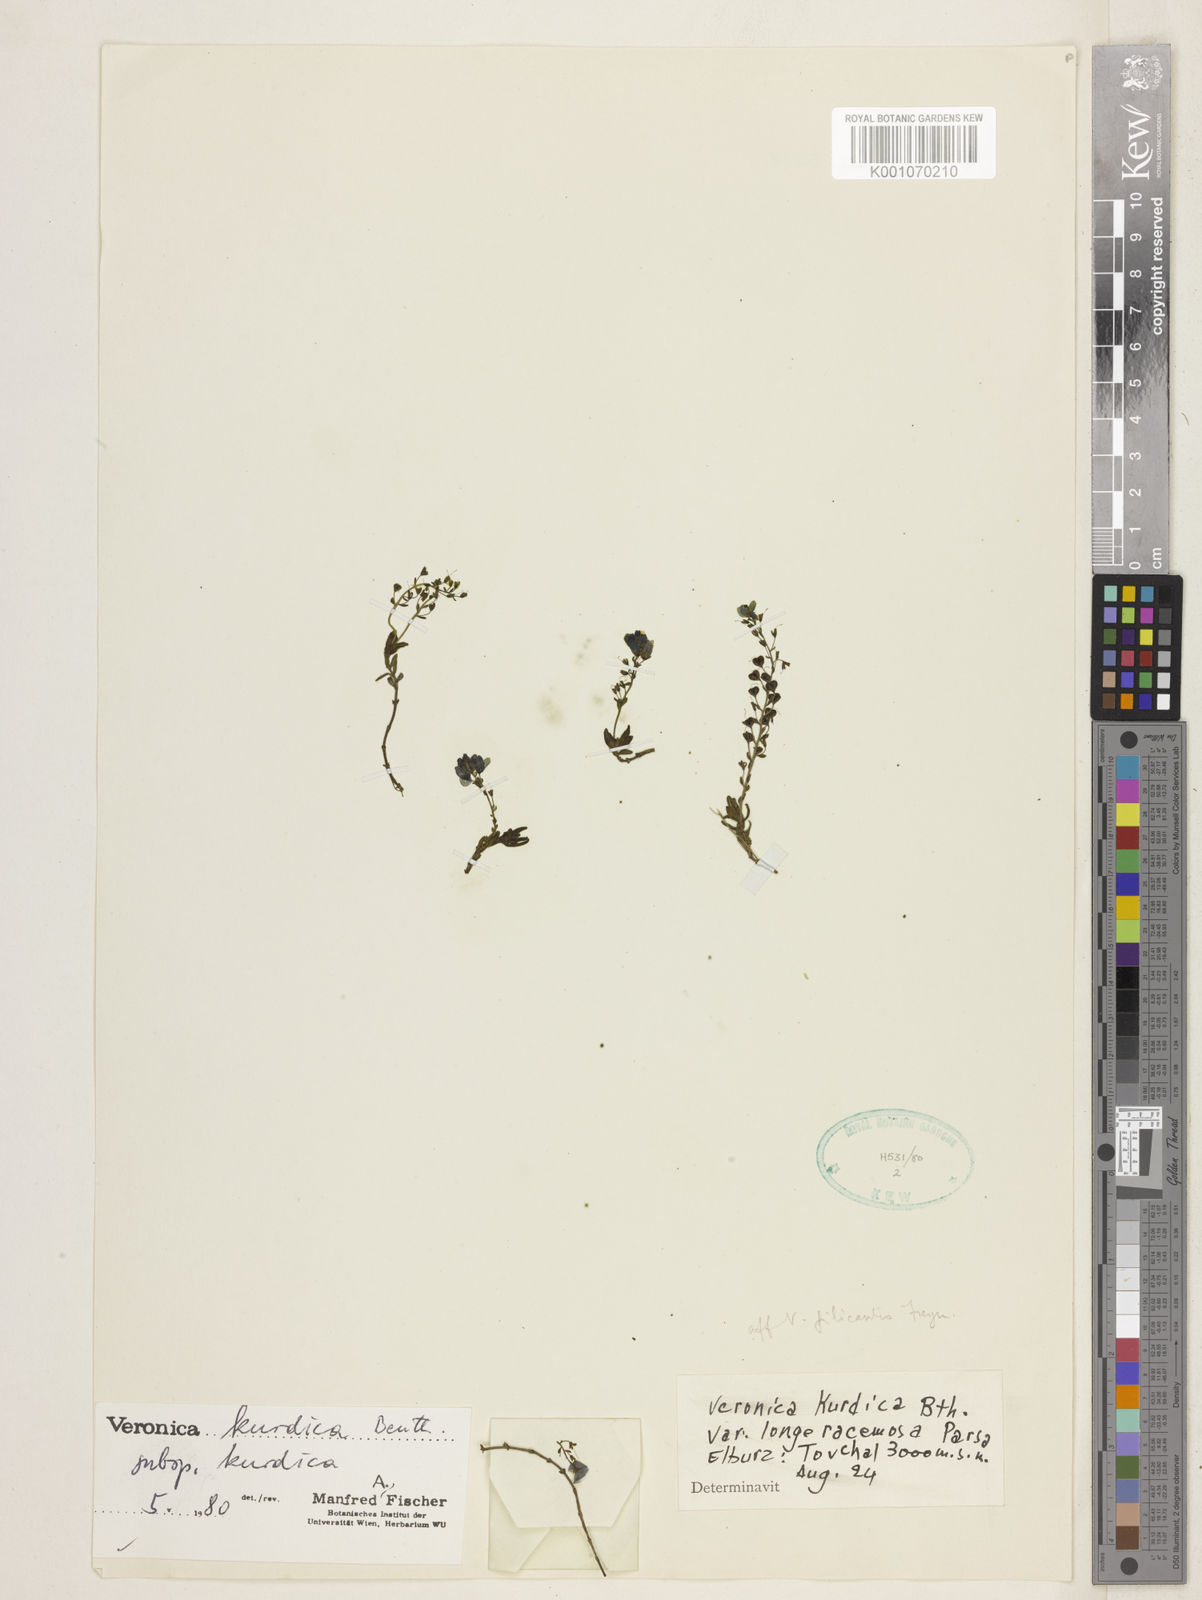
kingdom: Plantae
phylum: Tracheophyta
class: Magnoliopsida
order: Lamiales
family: Plantaginaceae
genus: Veronica
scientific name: Veronica orientalis
